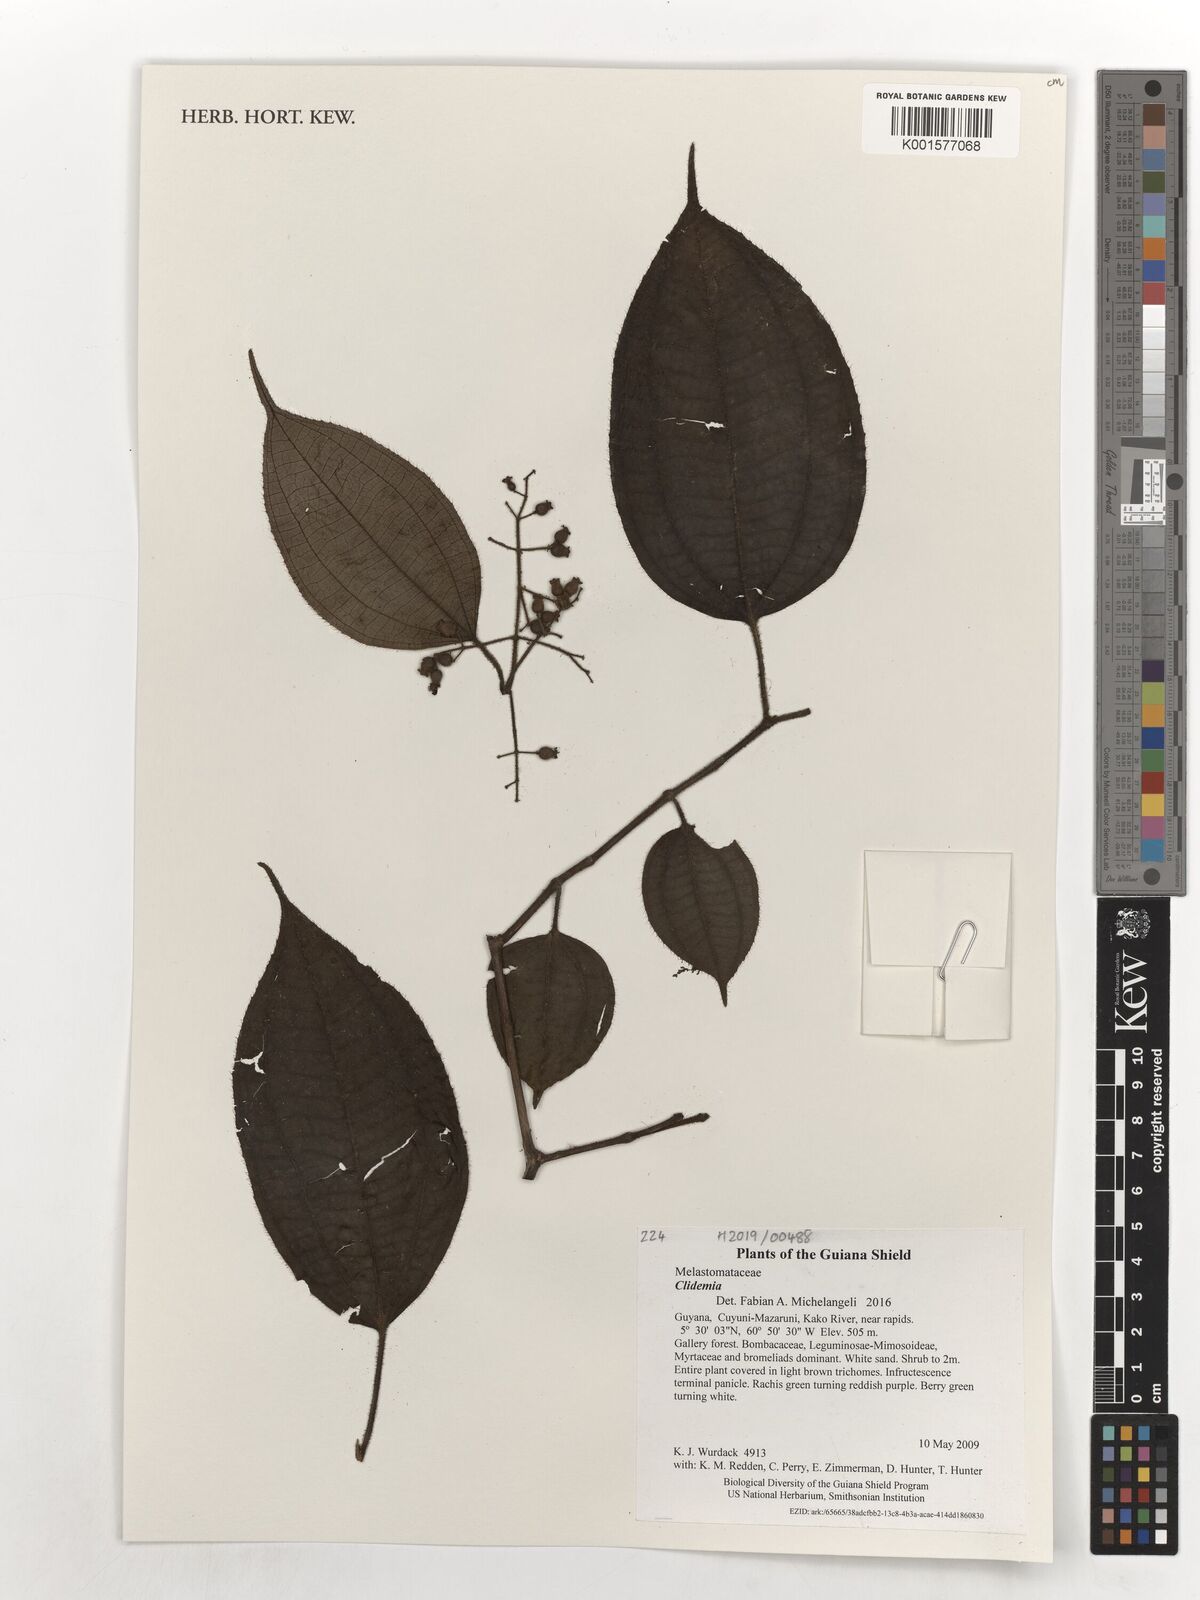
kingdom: Plantae
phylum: Tracheophyta
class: Magnoliopsida
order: Myrtales
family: Melastomataceae
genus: Miconia
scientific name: Miconia
